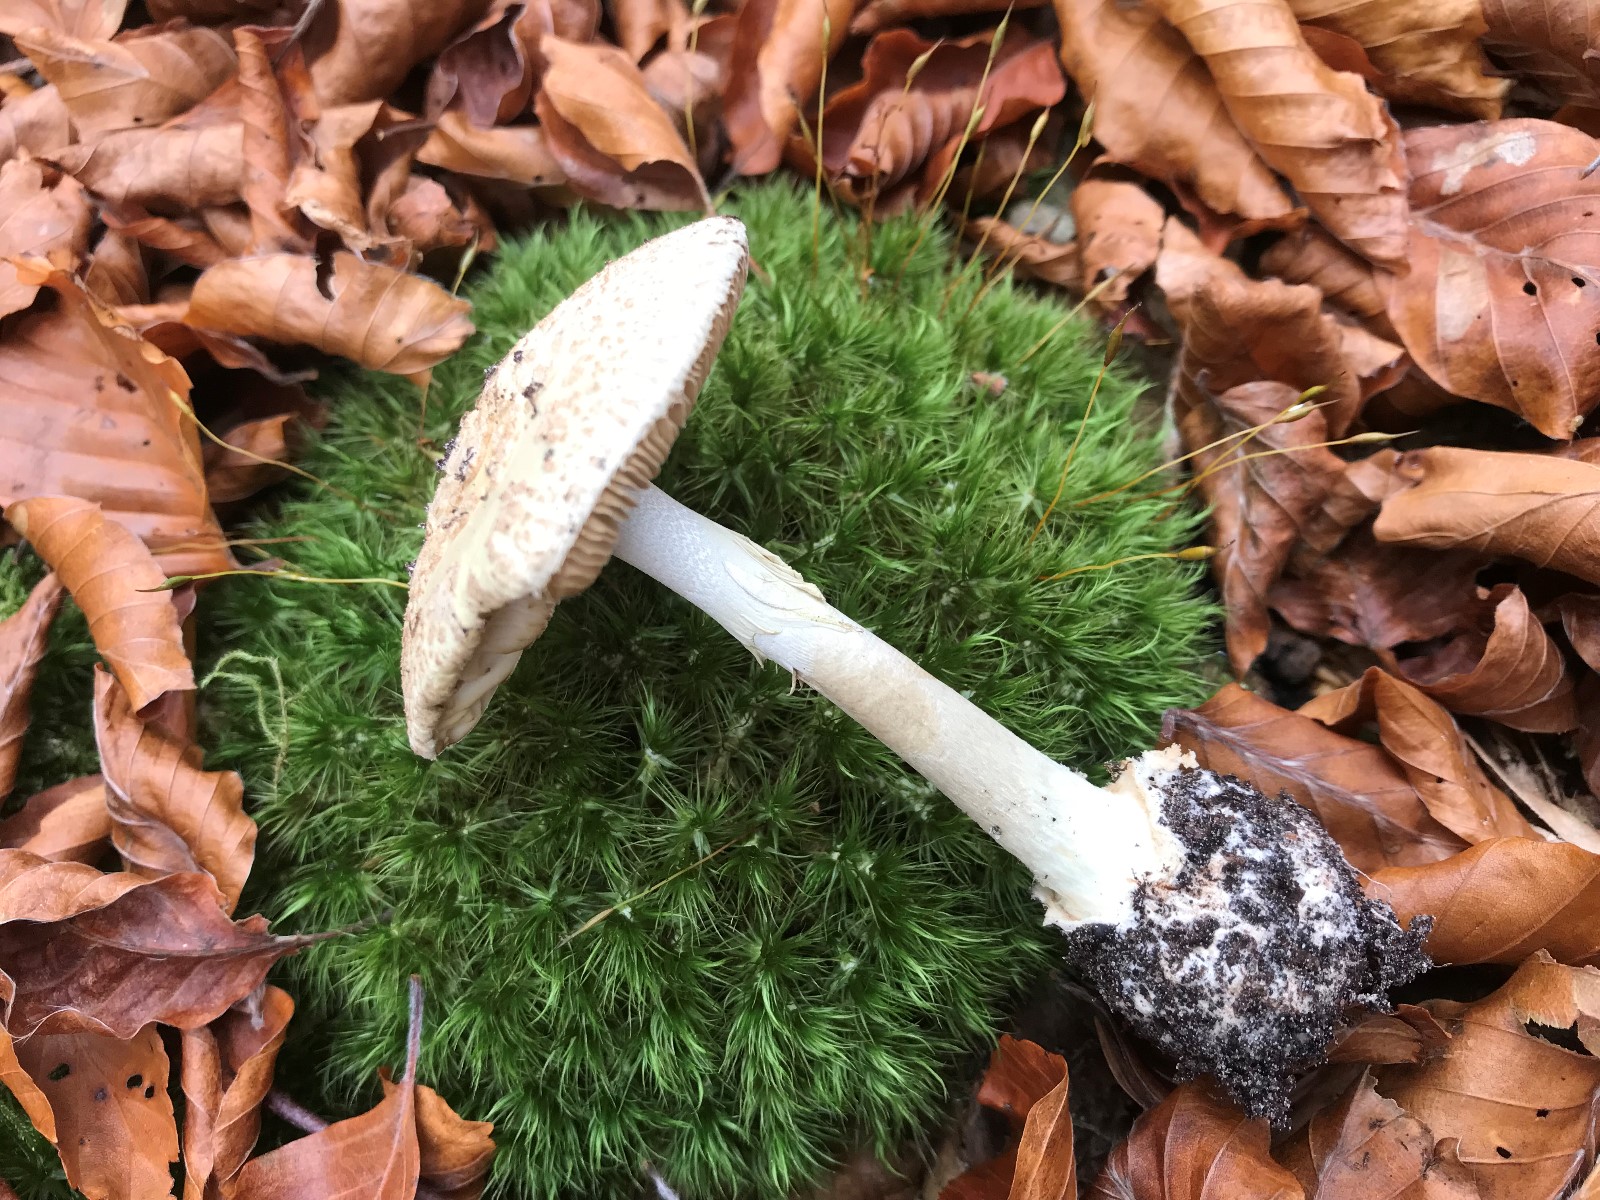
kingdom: Fungi
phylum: Basidiomycota
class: Agaricomycetes
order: Agaricales
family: Amanitaceae
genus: Amanita
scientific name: Amanita citrina
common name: kugleknoldet fluesvamp
